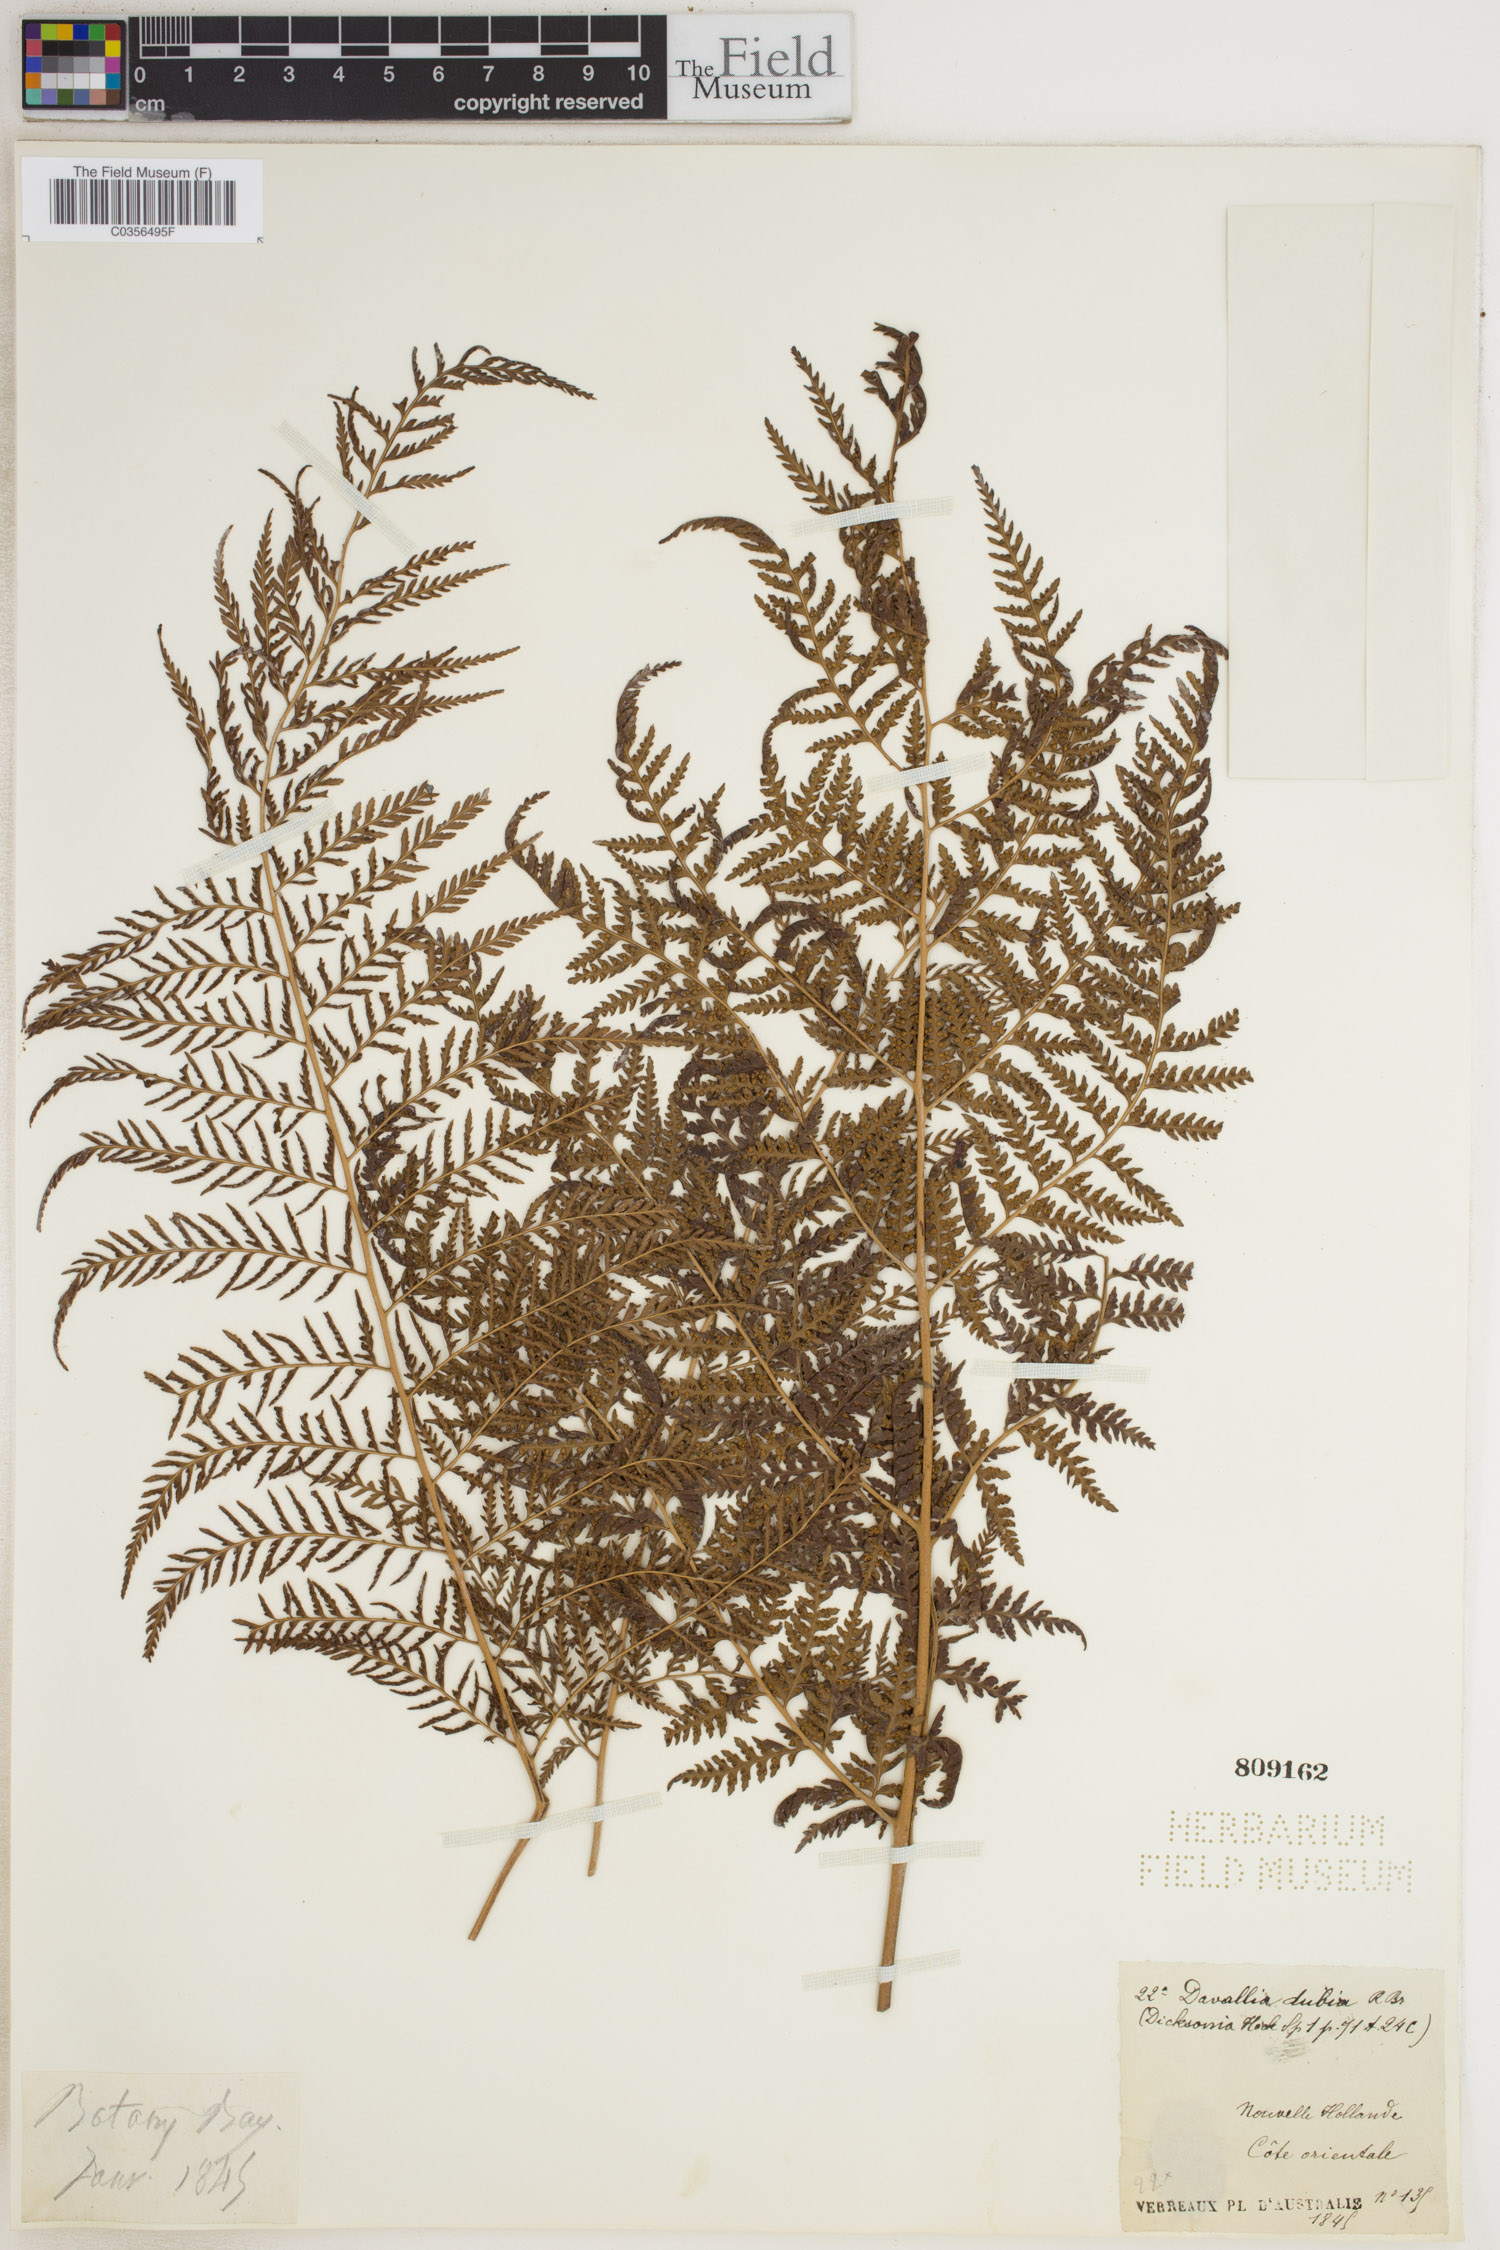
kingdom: Plantae
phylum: Tracheophyta
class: Polypodiopsida
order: Polypodiales
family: Davalliaceae
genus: Davallia
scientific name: Davallia dubia
